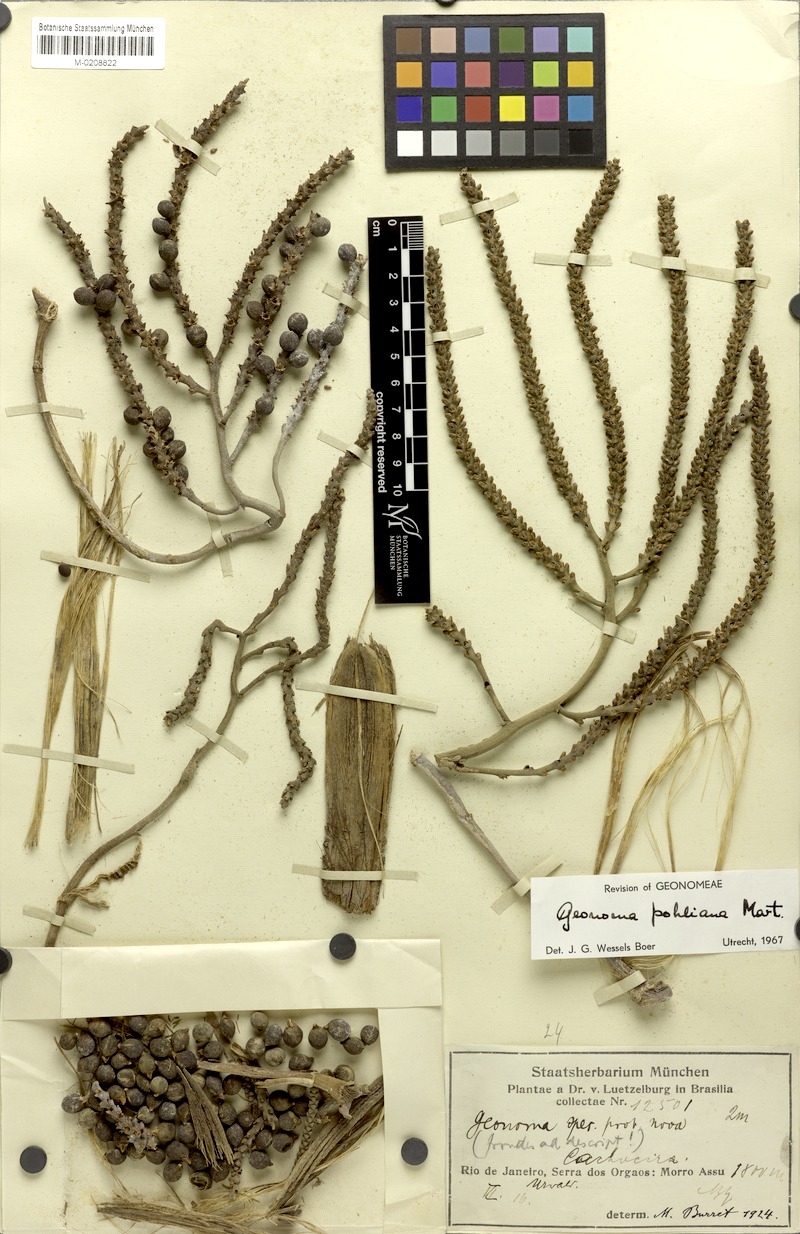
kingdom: Plantae
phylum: Tracheophyta
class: Liliopsida
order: Arecales
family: Arecaceae
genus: Geonoma
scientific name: Geonoma pohliana
